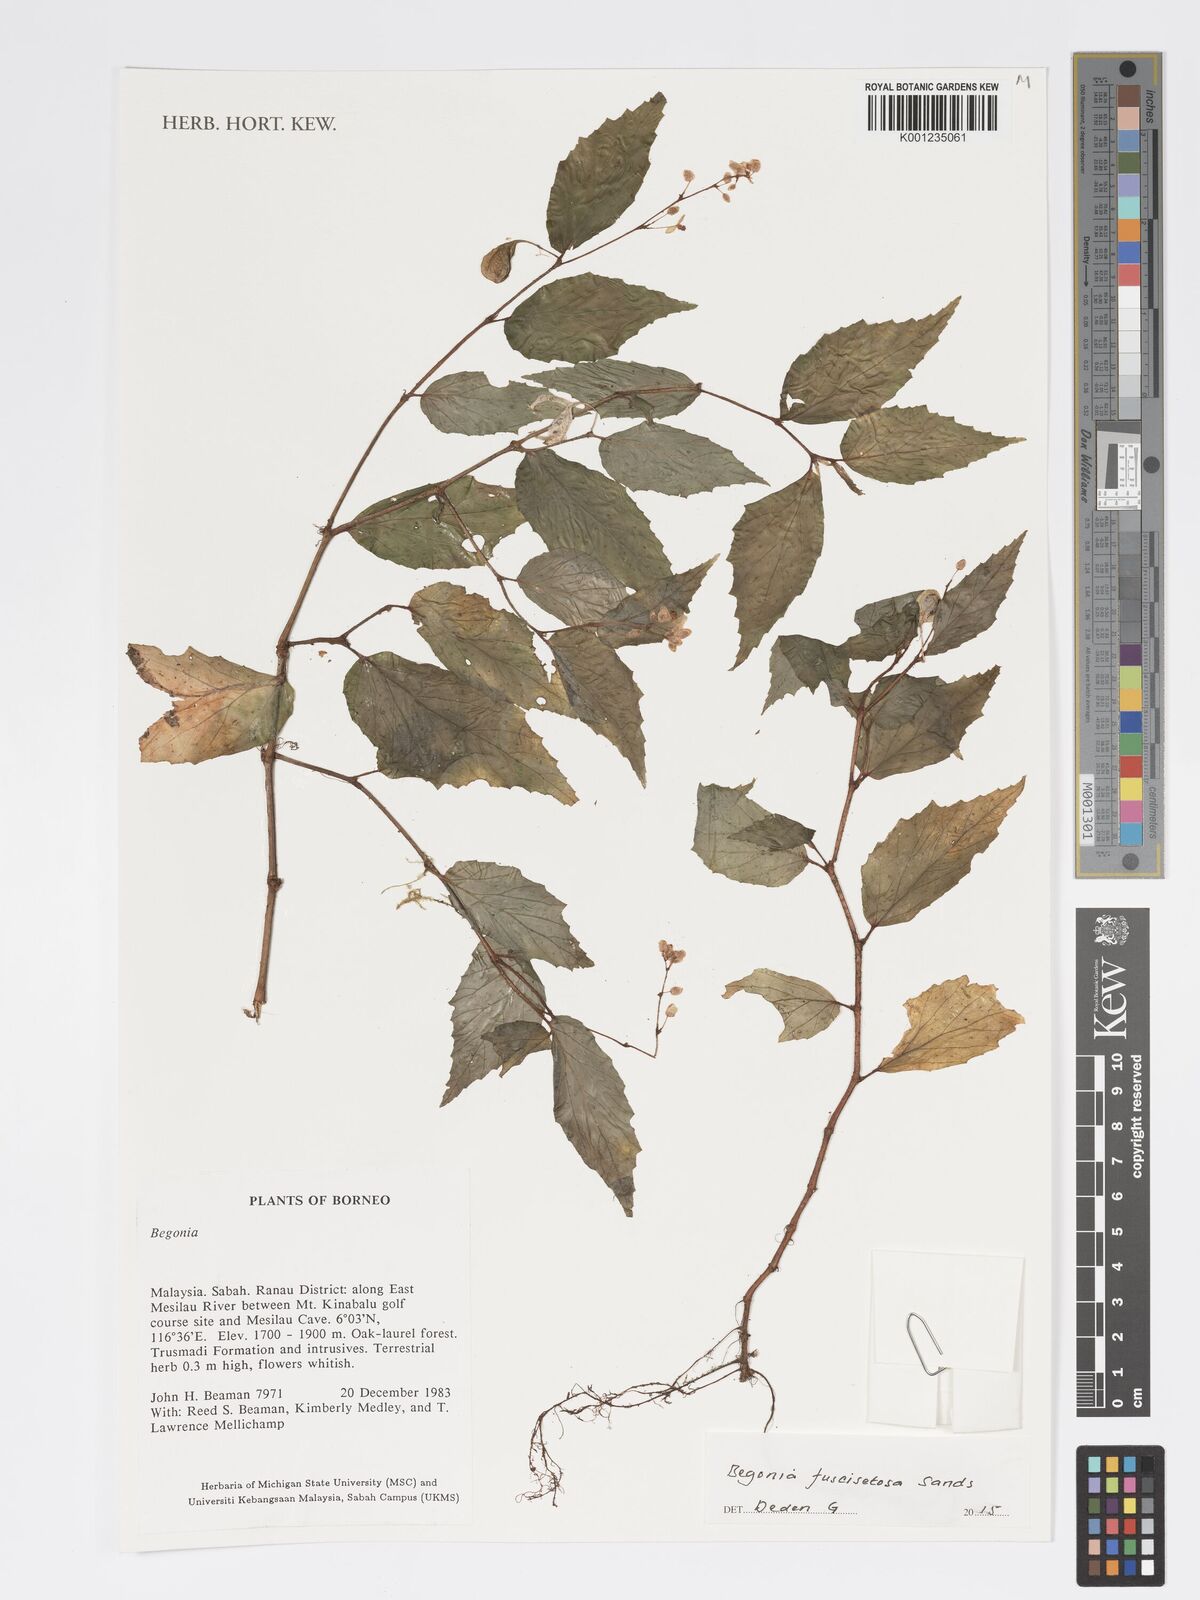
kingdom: Plantae
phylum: Tracheophyta
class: Magnoliopsida
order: Cucurbitales
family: Begoniaceae
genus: Begonia
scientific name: Begonia fuscisetosa
